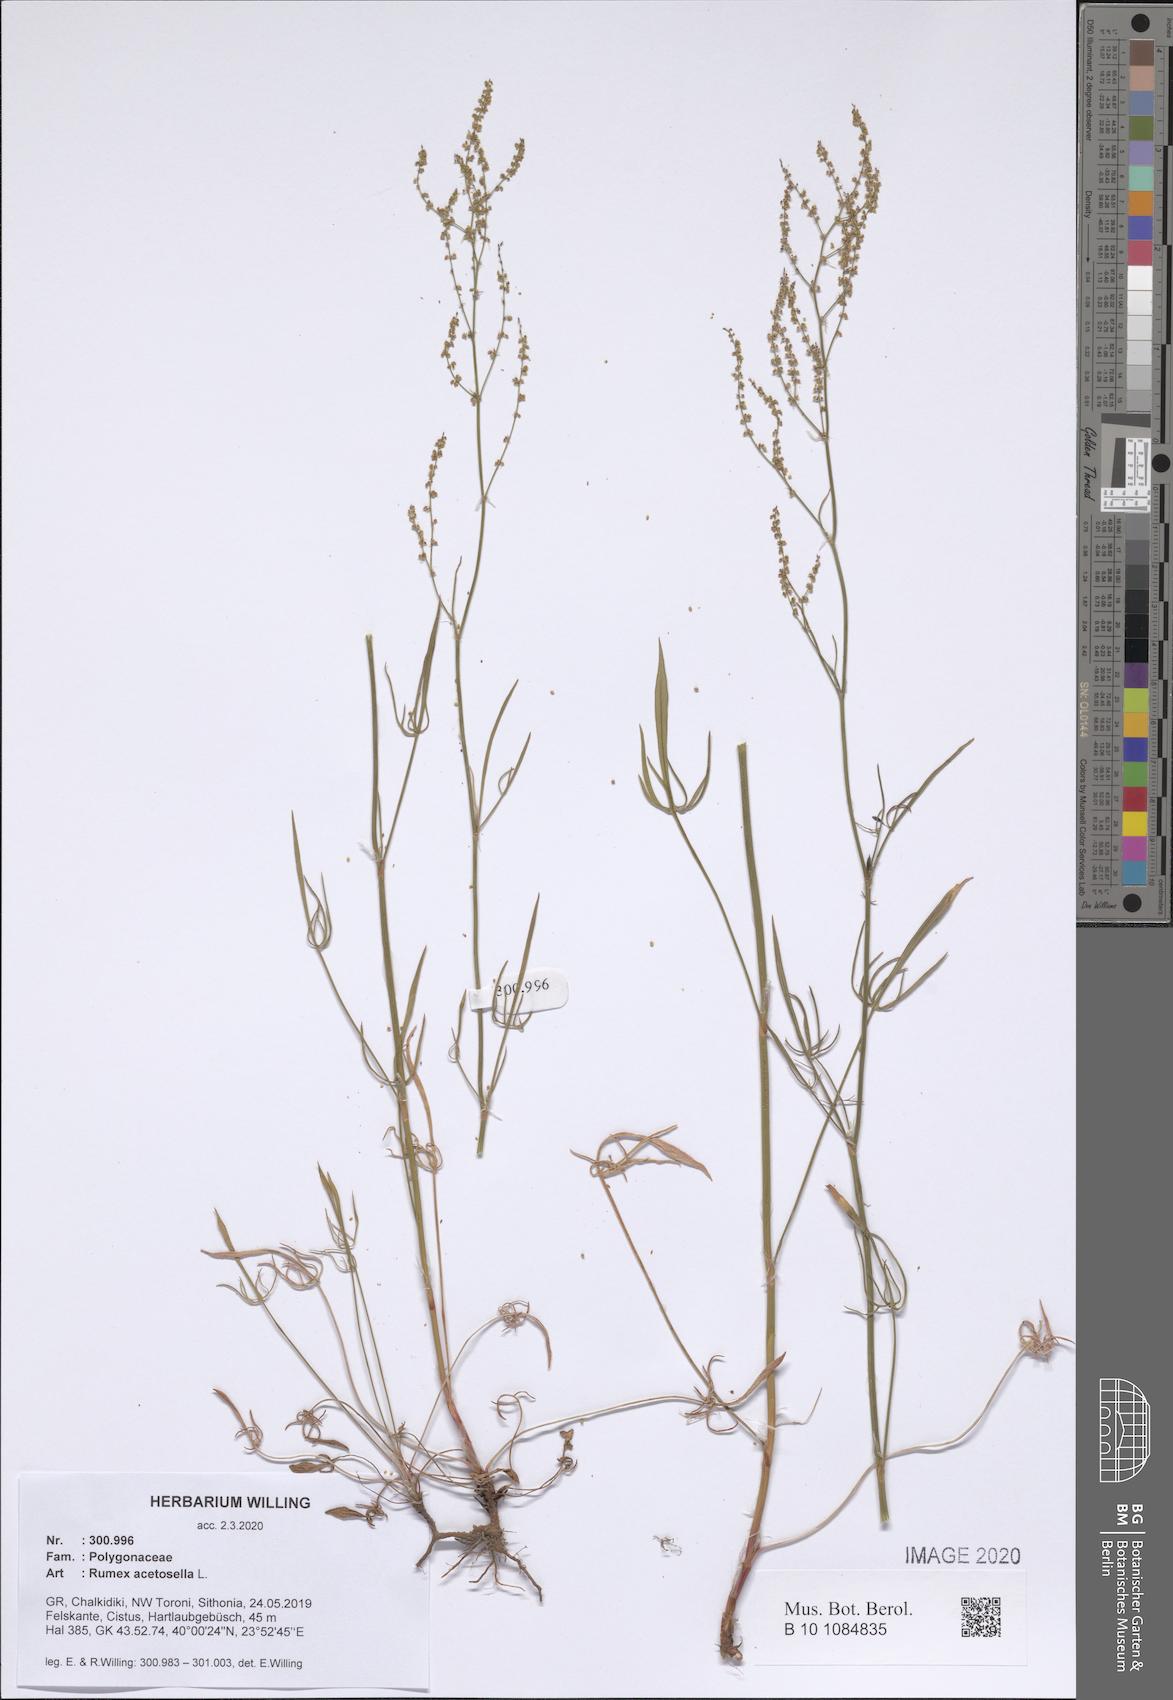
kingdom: Plantae
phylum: Tracheophyta
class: Magnoliopsida
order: Caryophyllales
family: Polygonaceae
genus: Rumex
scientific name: Rumex acetosella
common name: Common sheep sorrel
